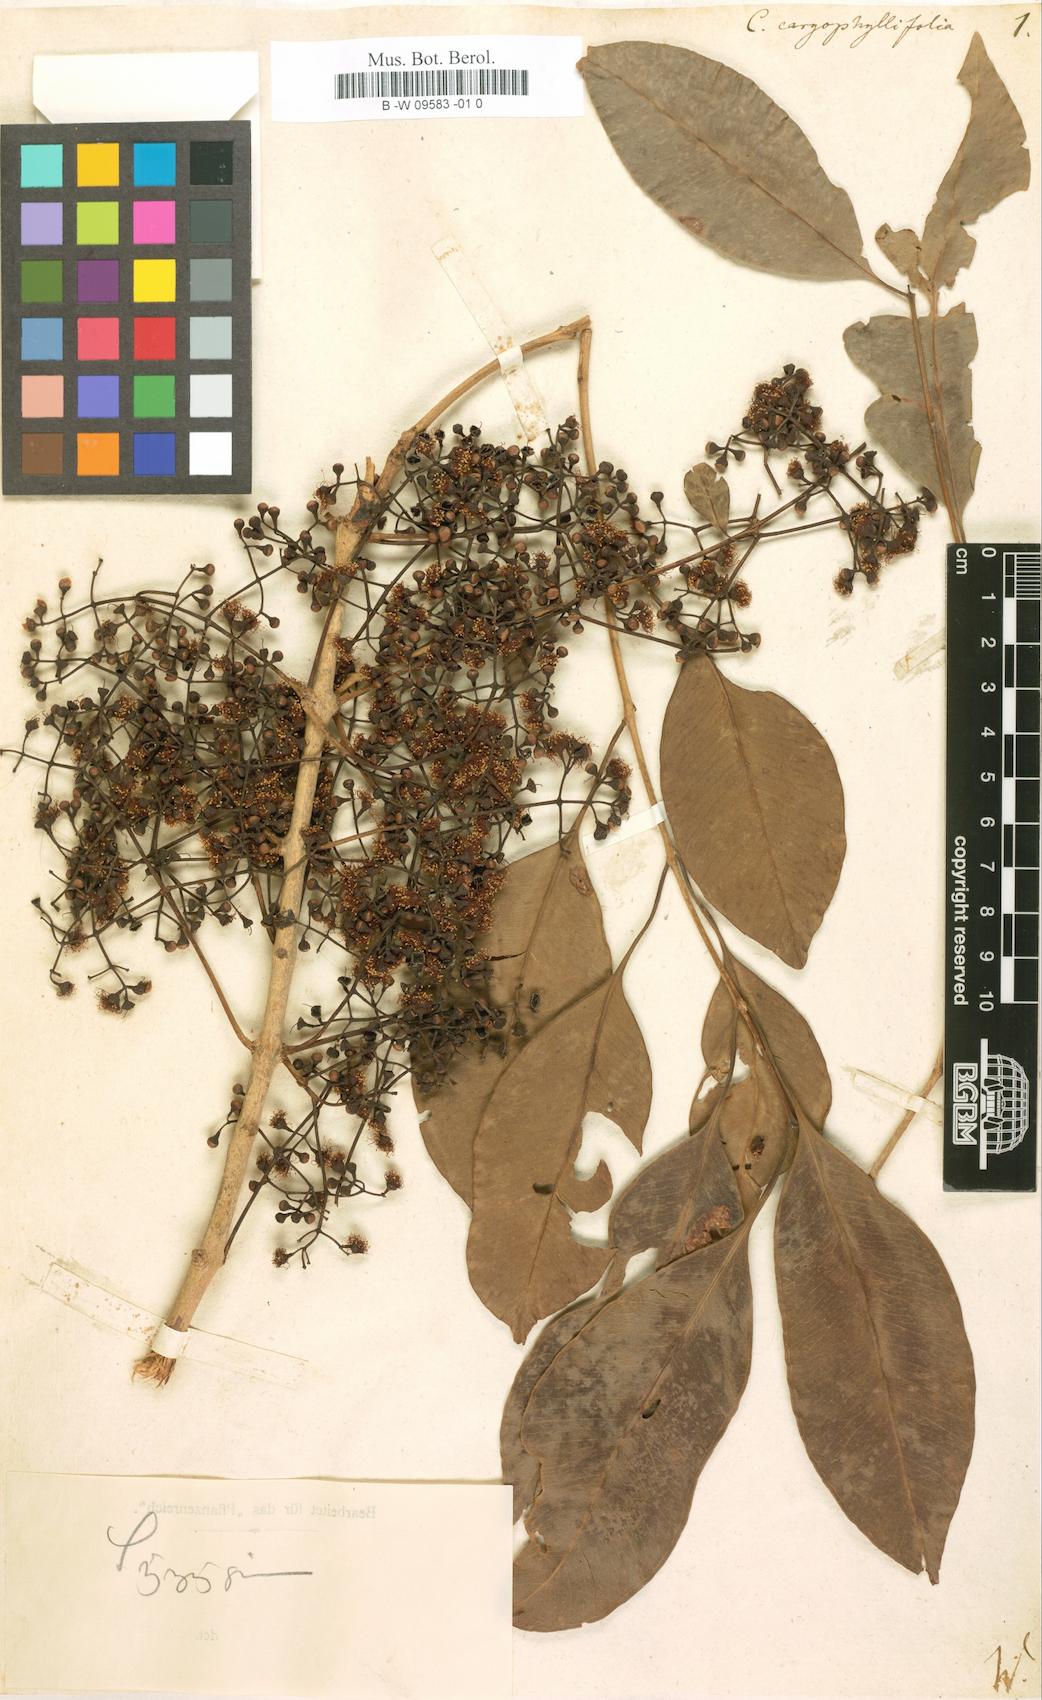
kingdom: Plantae
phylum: Tracheophyta
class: Magnoliopsida
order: Myrtales
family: Myrtaceae
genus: Syzygium
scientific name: Syzygium cumini
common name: Java plum
